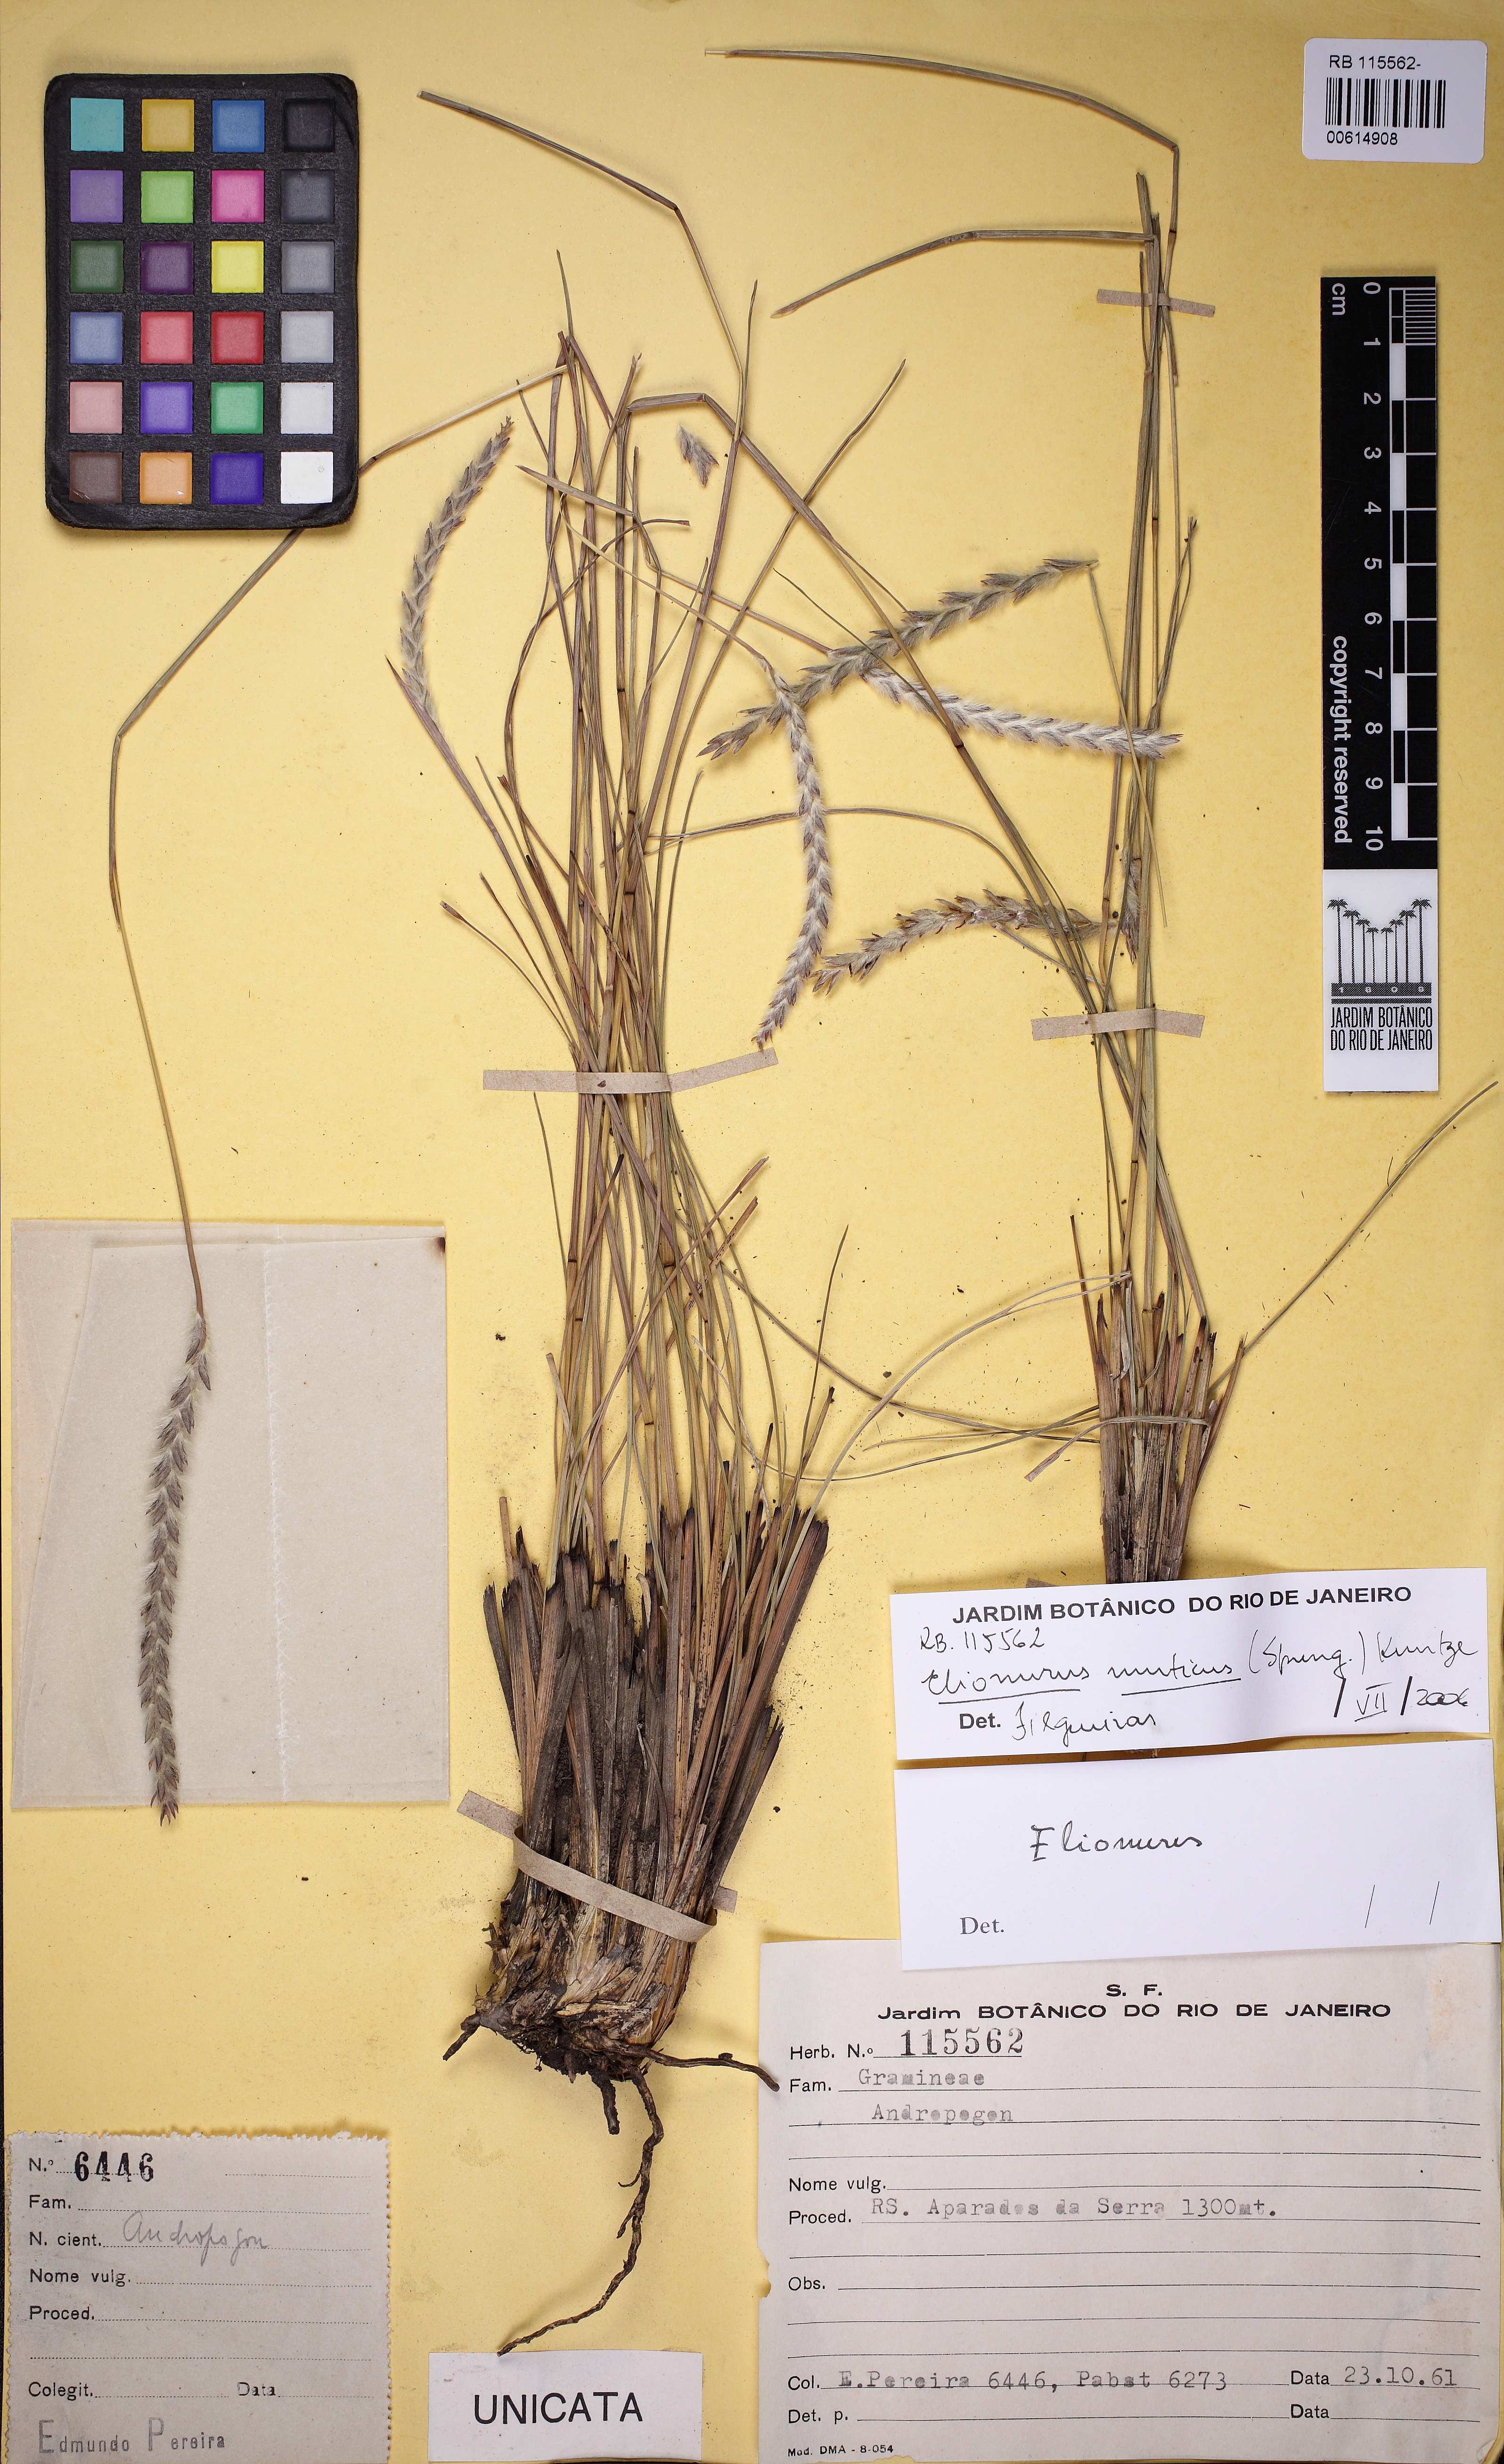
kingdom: Plantae
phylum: Tracheophyta
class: Liliopsida
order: Poales
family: Poaceae
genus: Elionurus
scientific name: Elionurus muticus
